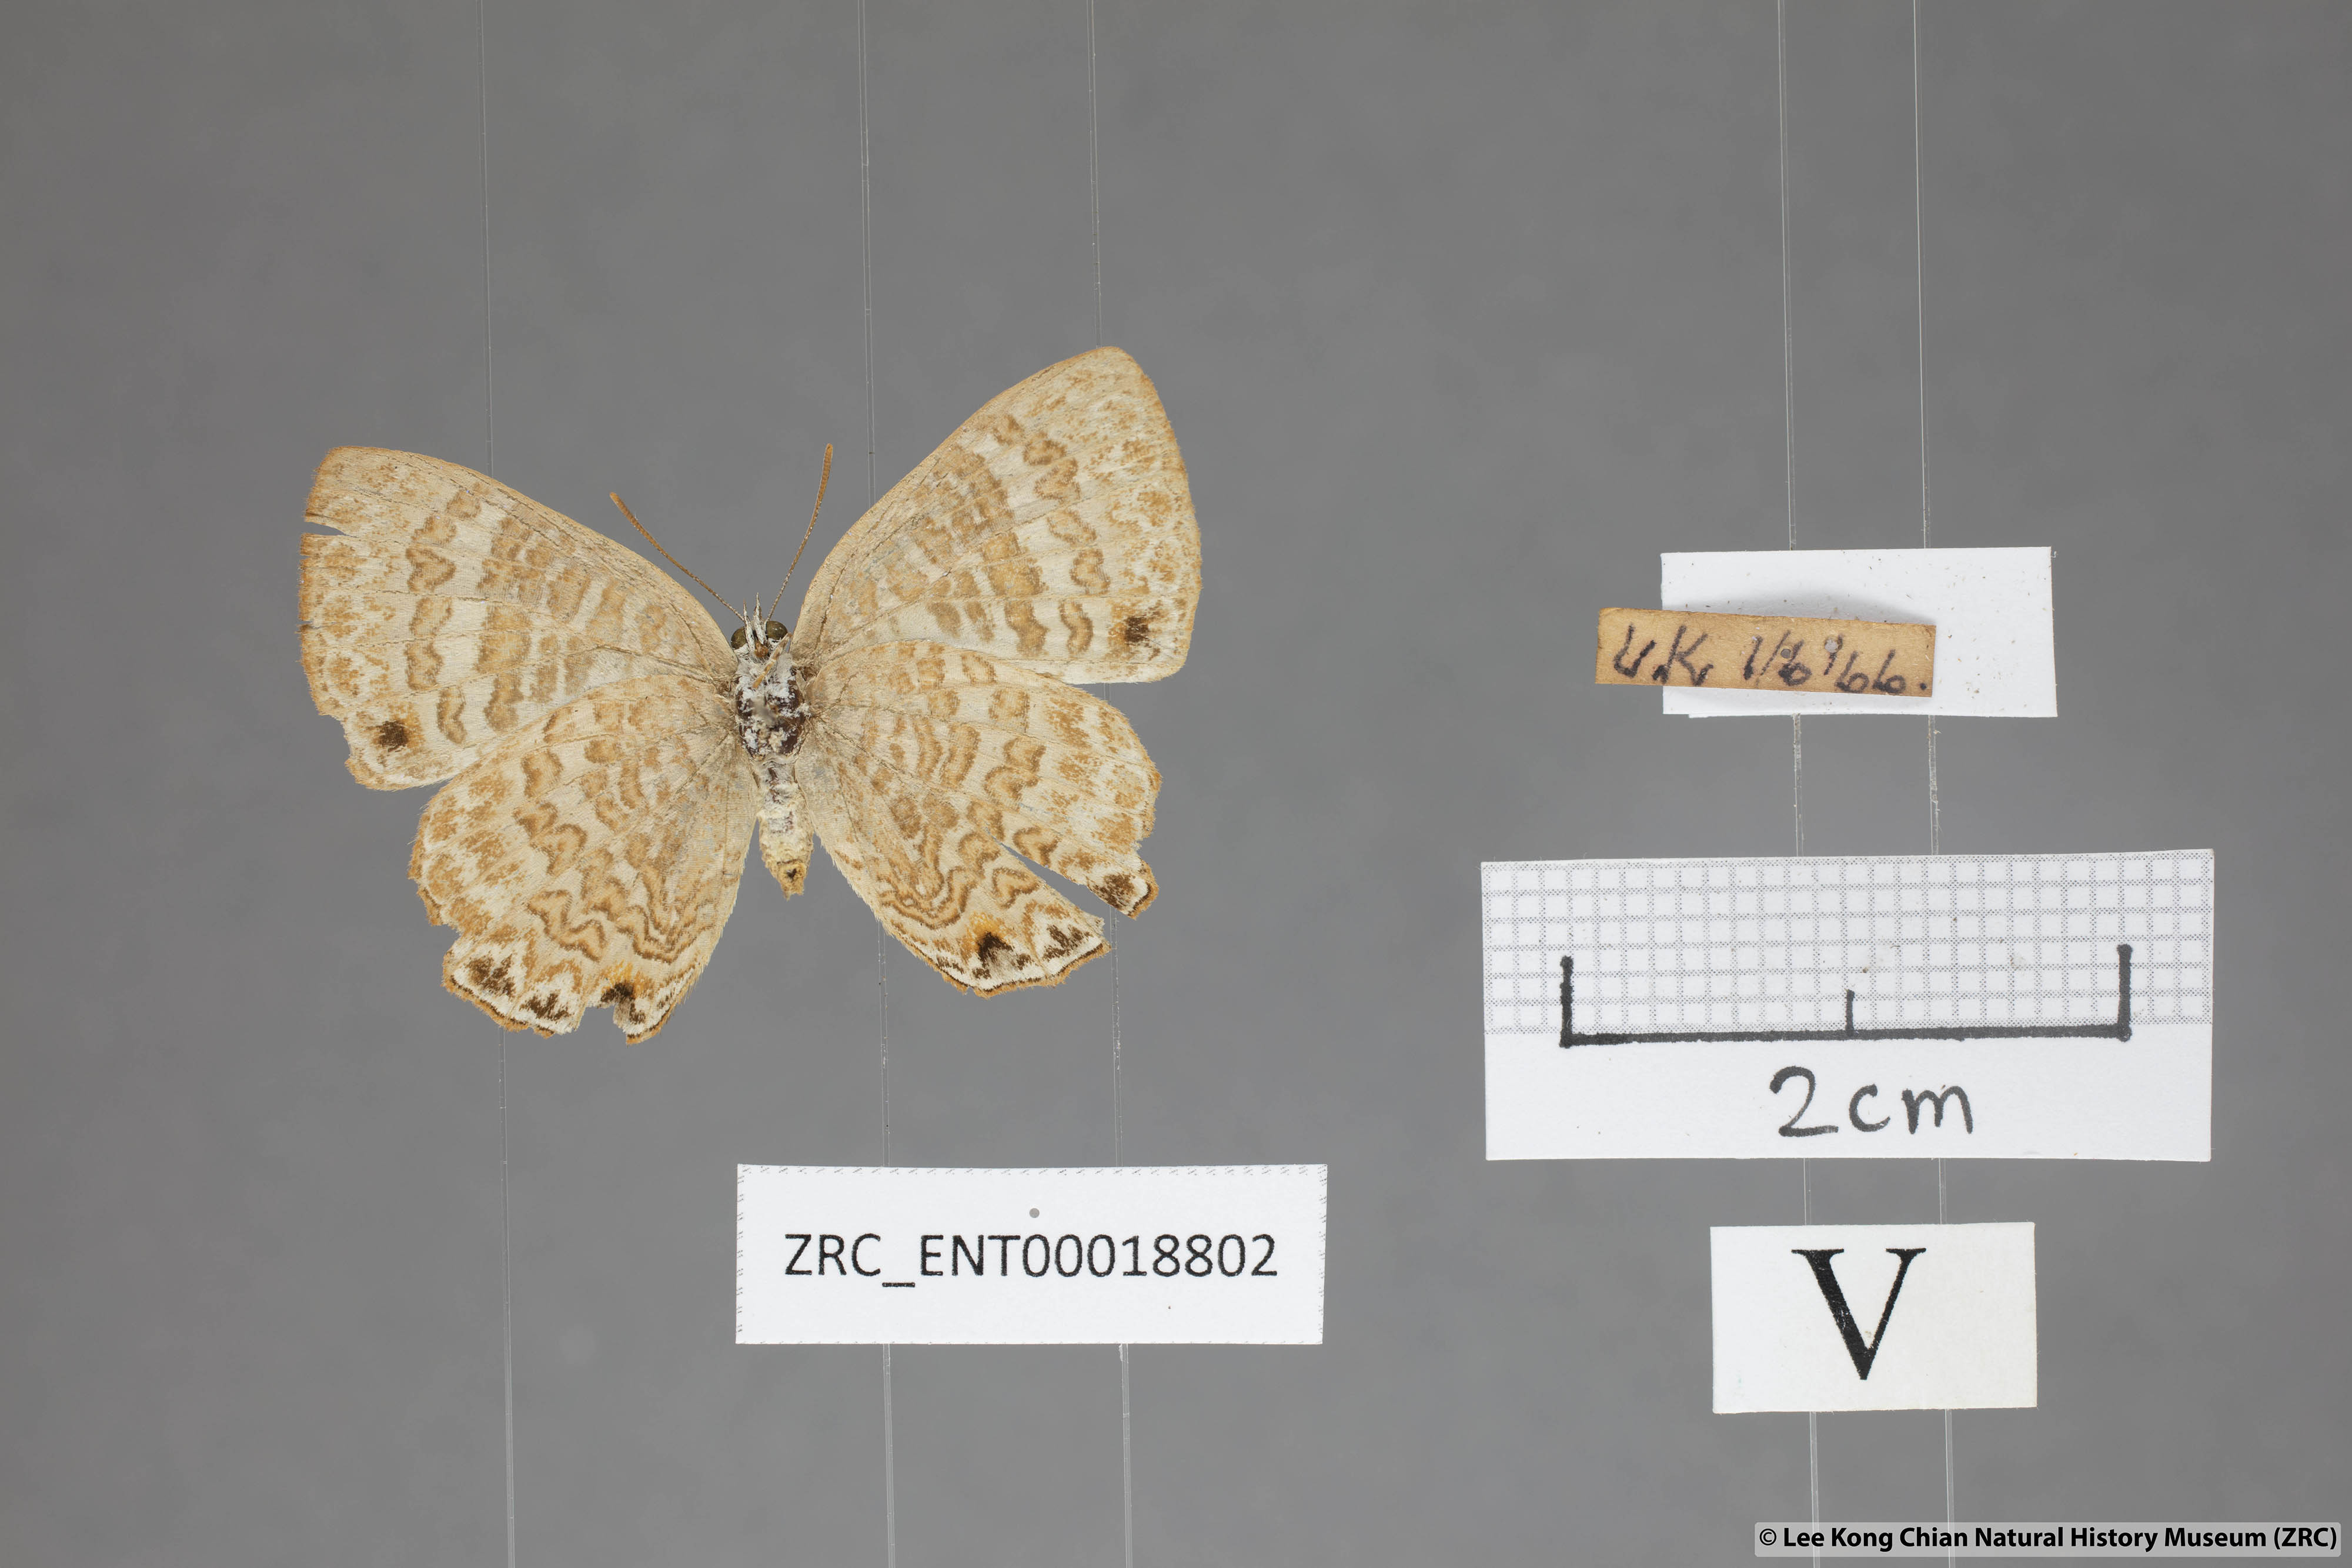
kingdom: Animalia
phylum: Arthropoda
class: Insecta
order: Lepidoptera
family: Lycaenidae
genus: Poritia
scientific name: Poritia pleurata
